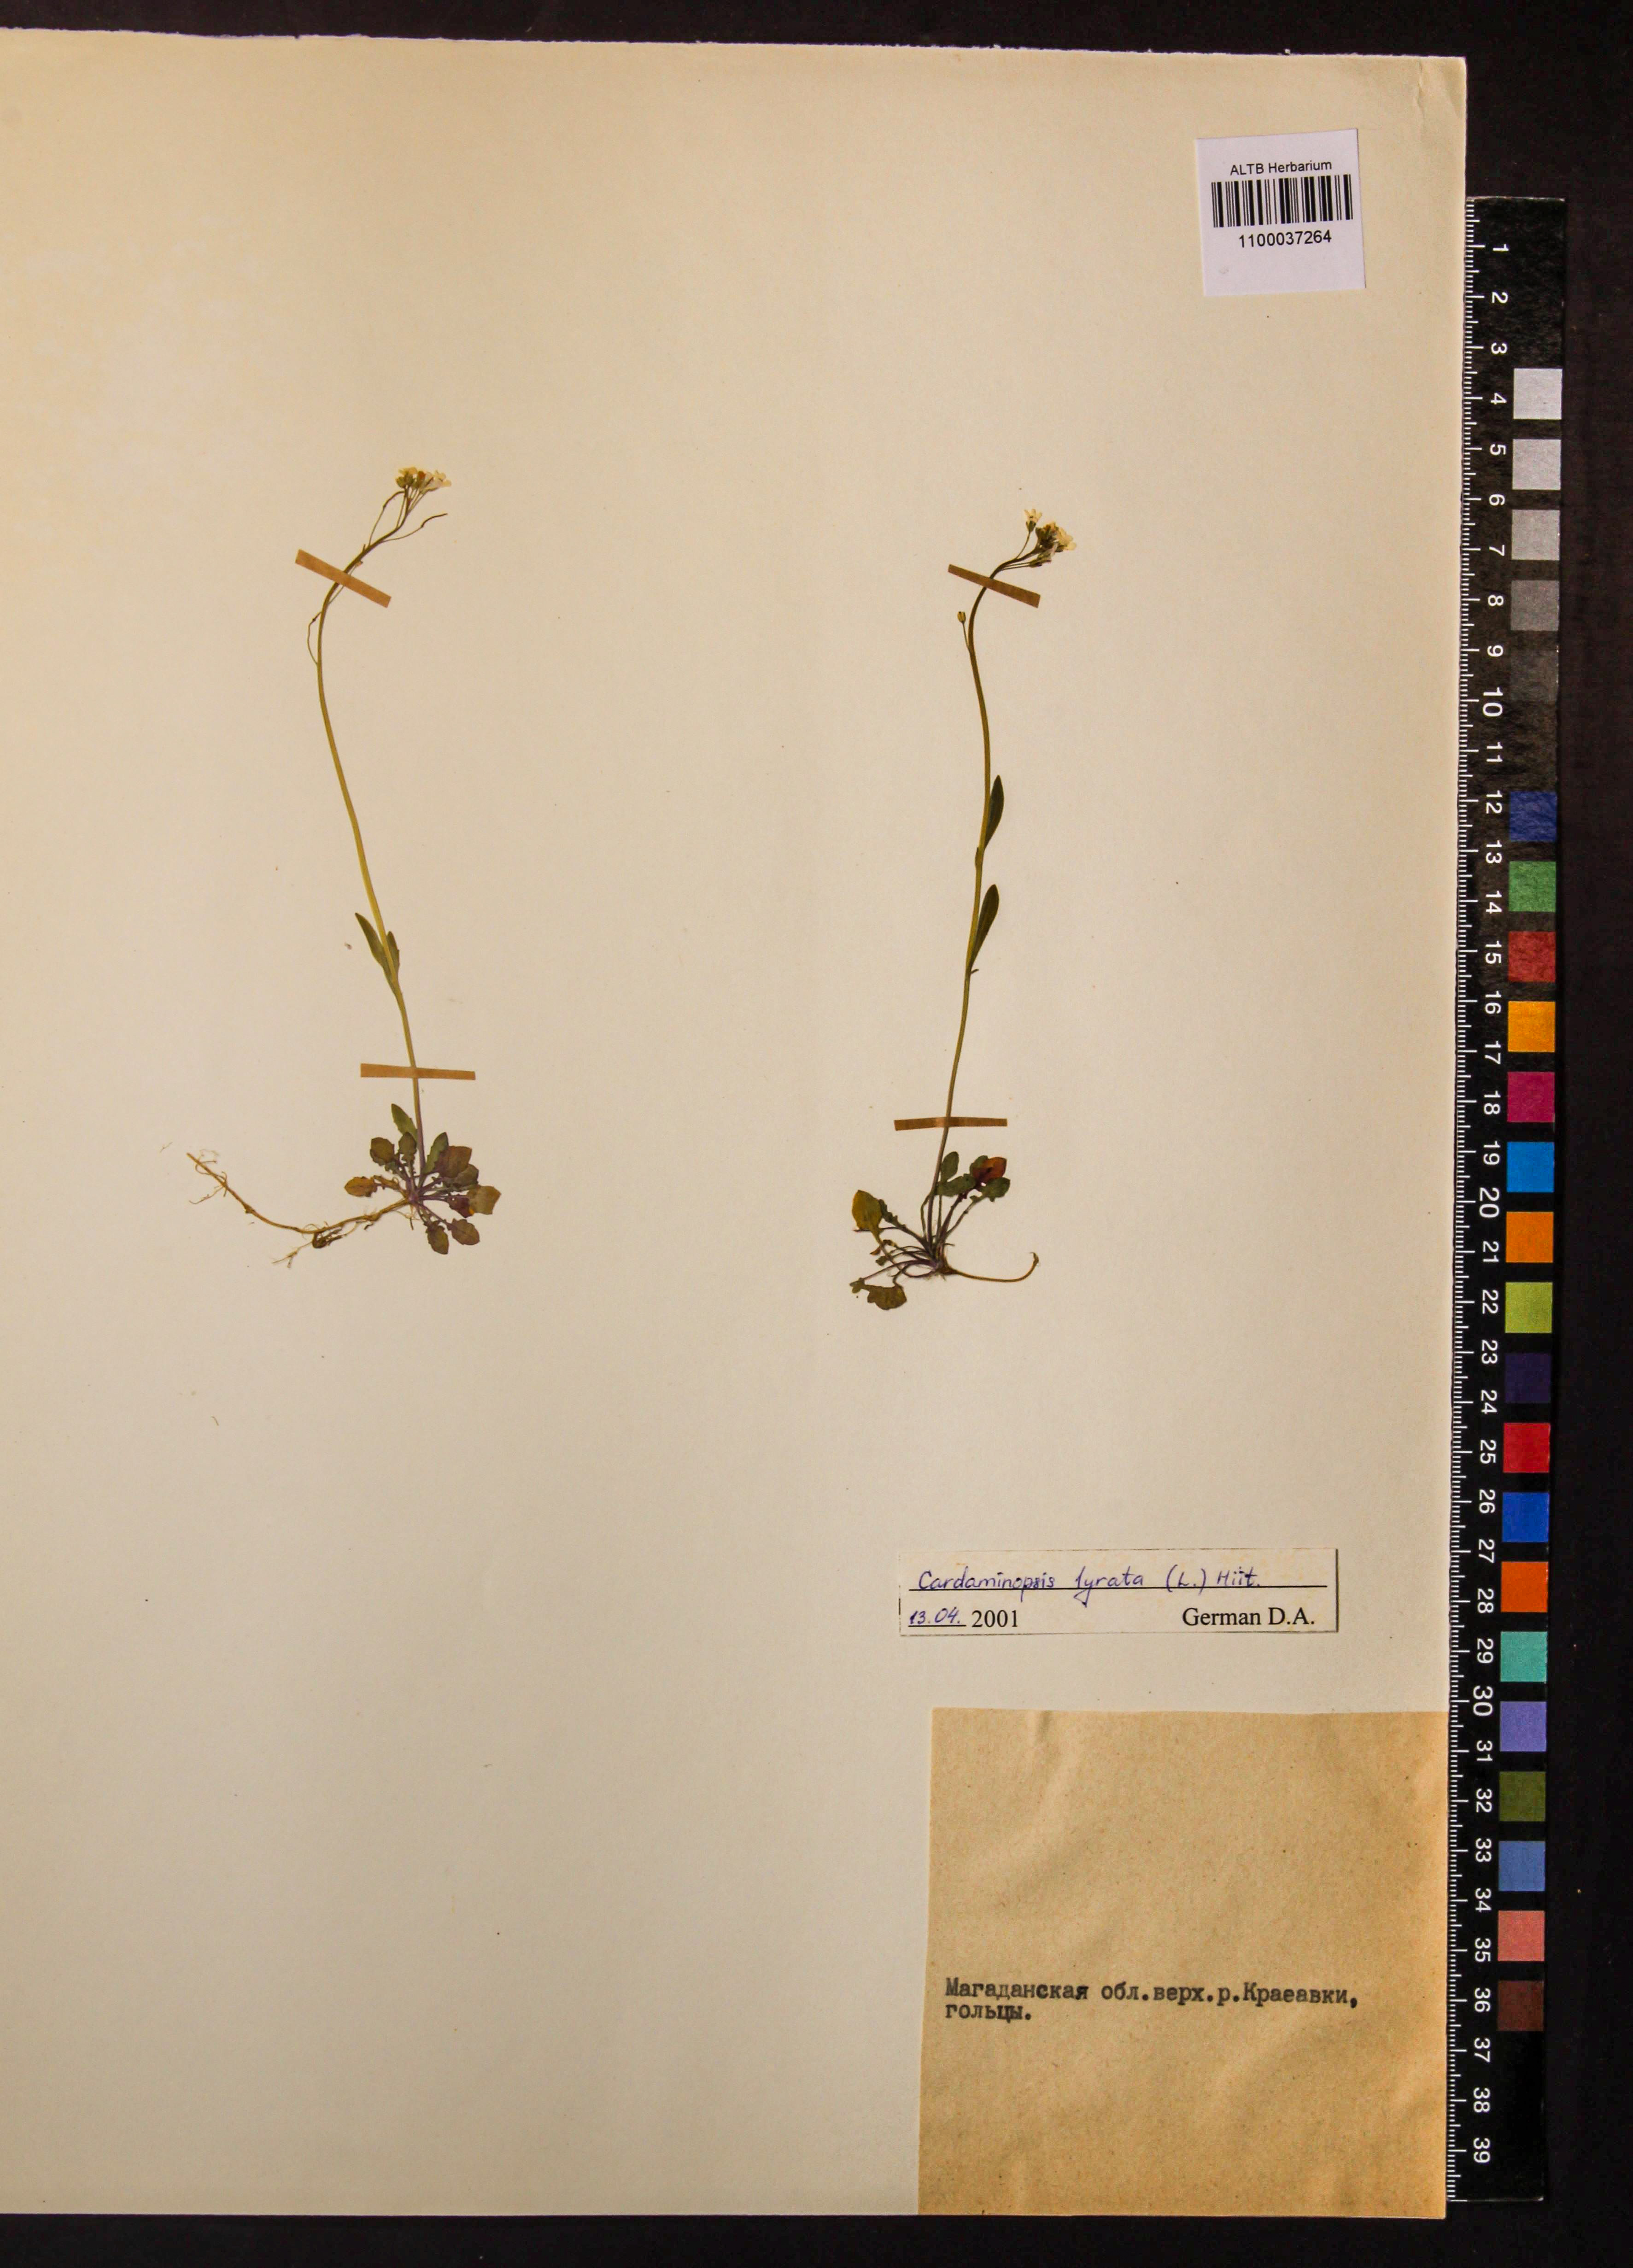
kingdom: Plantae
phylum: Tracheophyta
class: Magnoliopsida
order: Brassicales
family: Brassicaceae
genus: Arabidopsis
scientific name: Arabidopsis lyrata
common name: Lyrate rockcress
